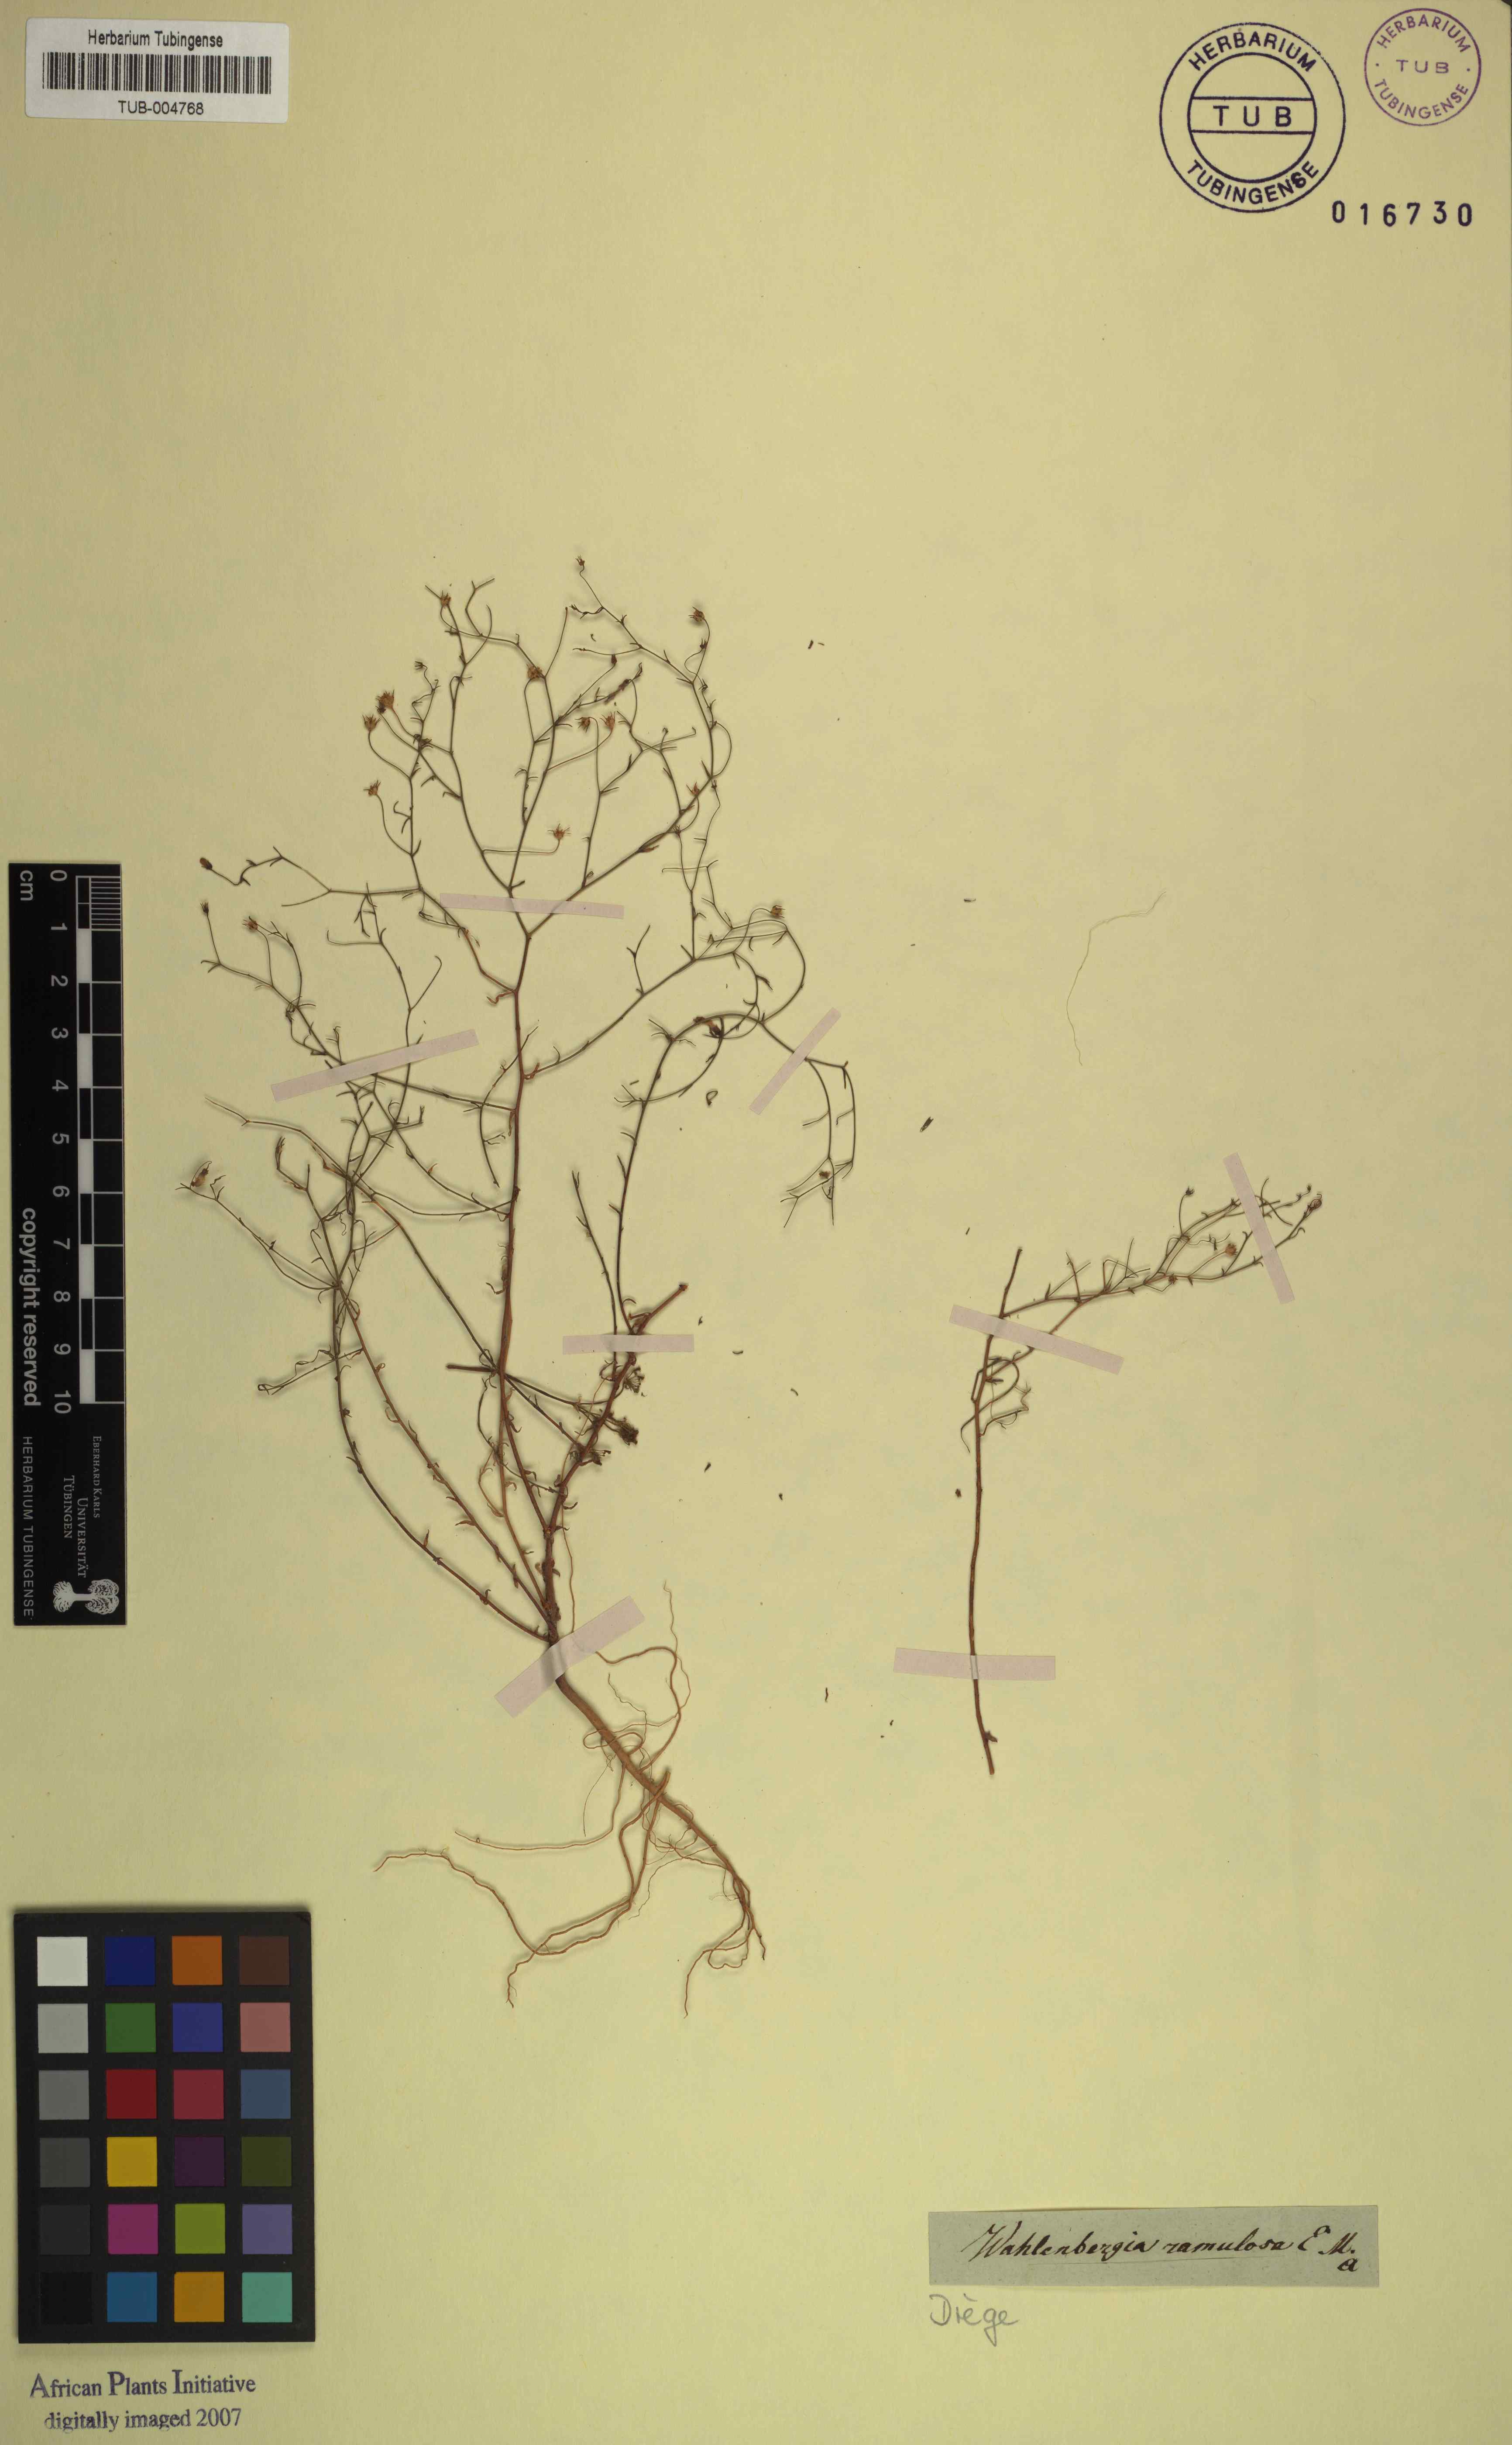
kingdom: Plantae
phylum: Tracheophyta
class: Magnoliopsida
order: Asterales
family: Campanulaceae
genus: Wahlenbergia
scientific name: Wahlenbergia debilis
